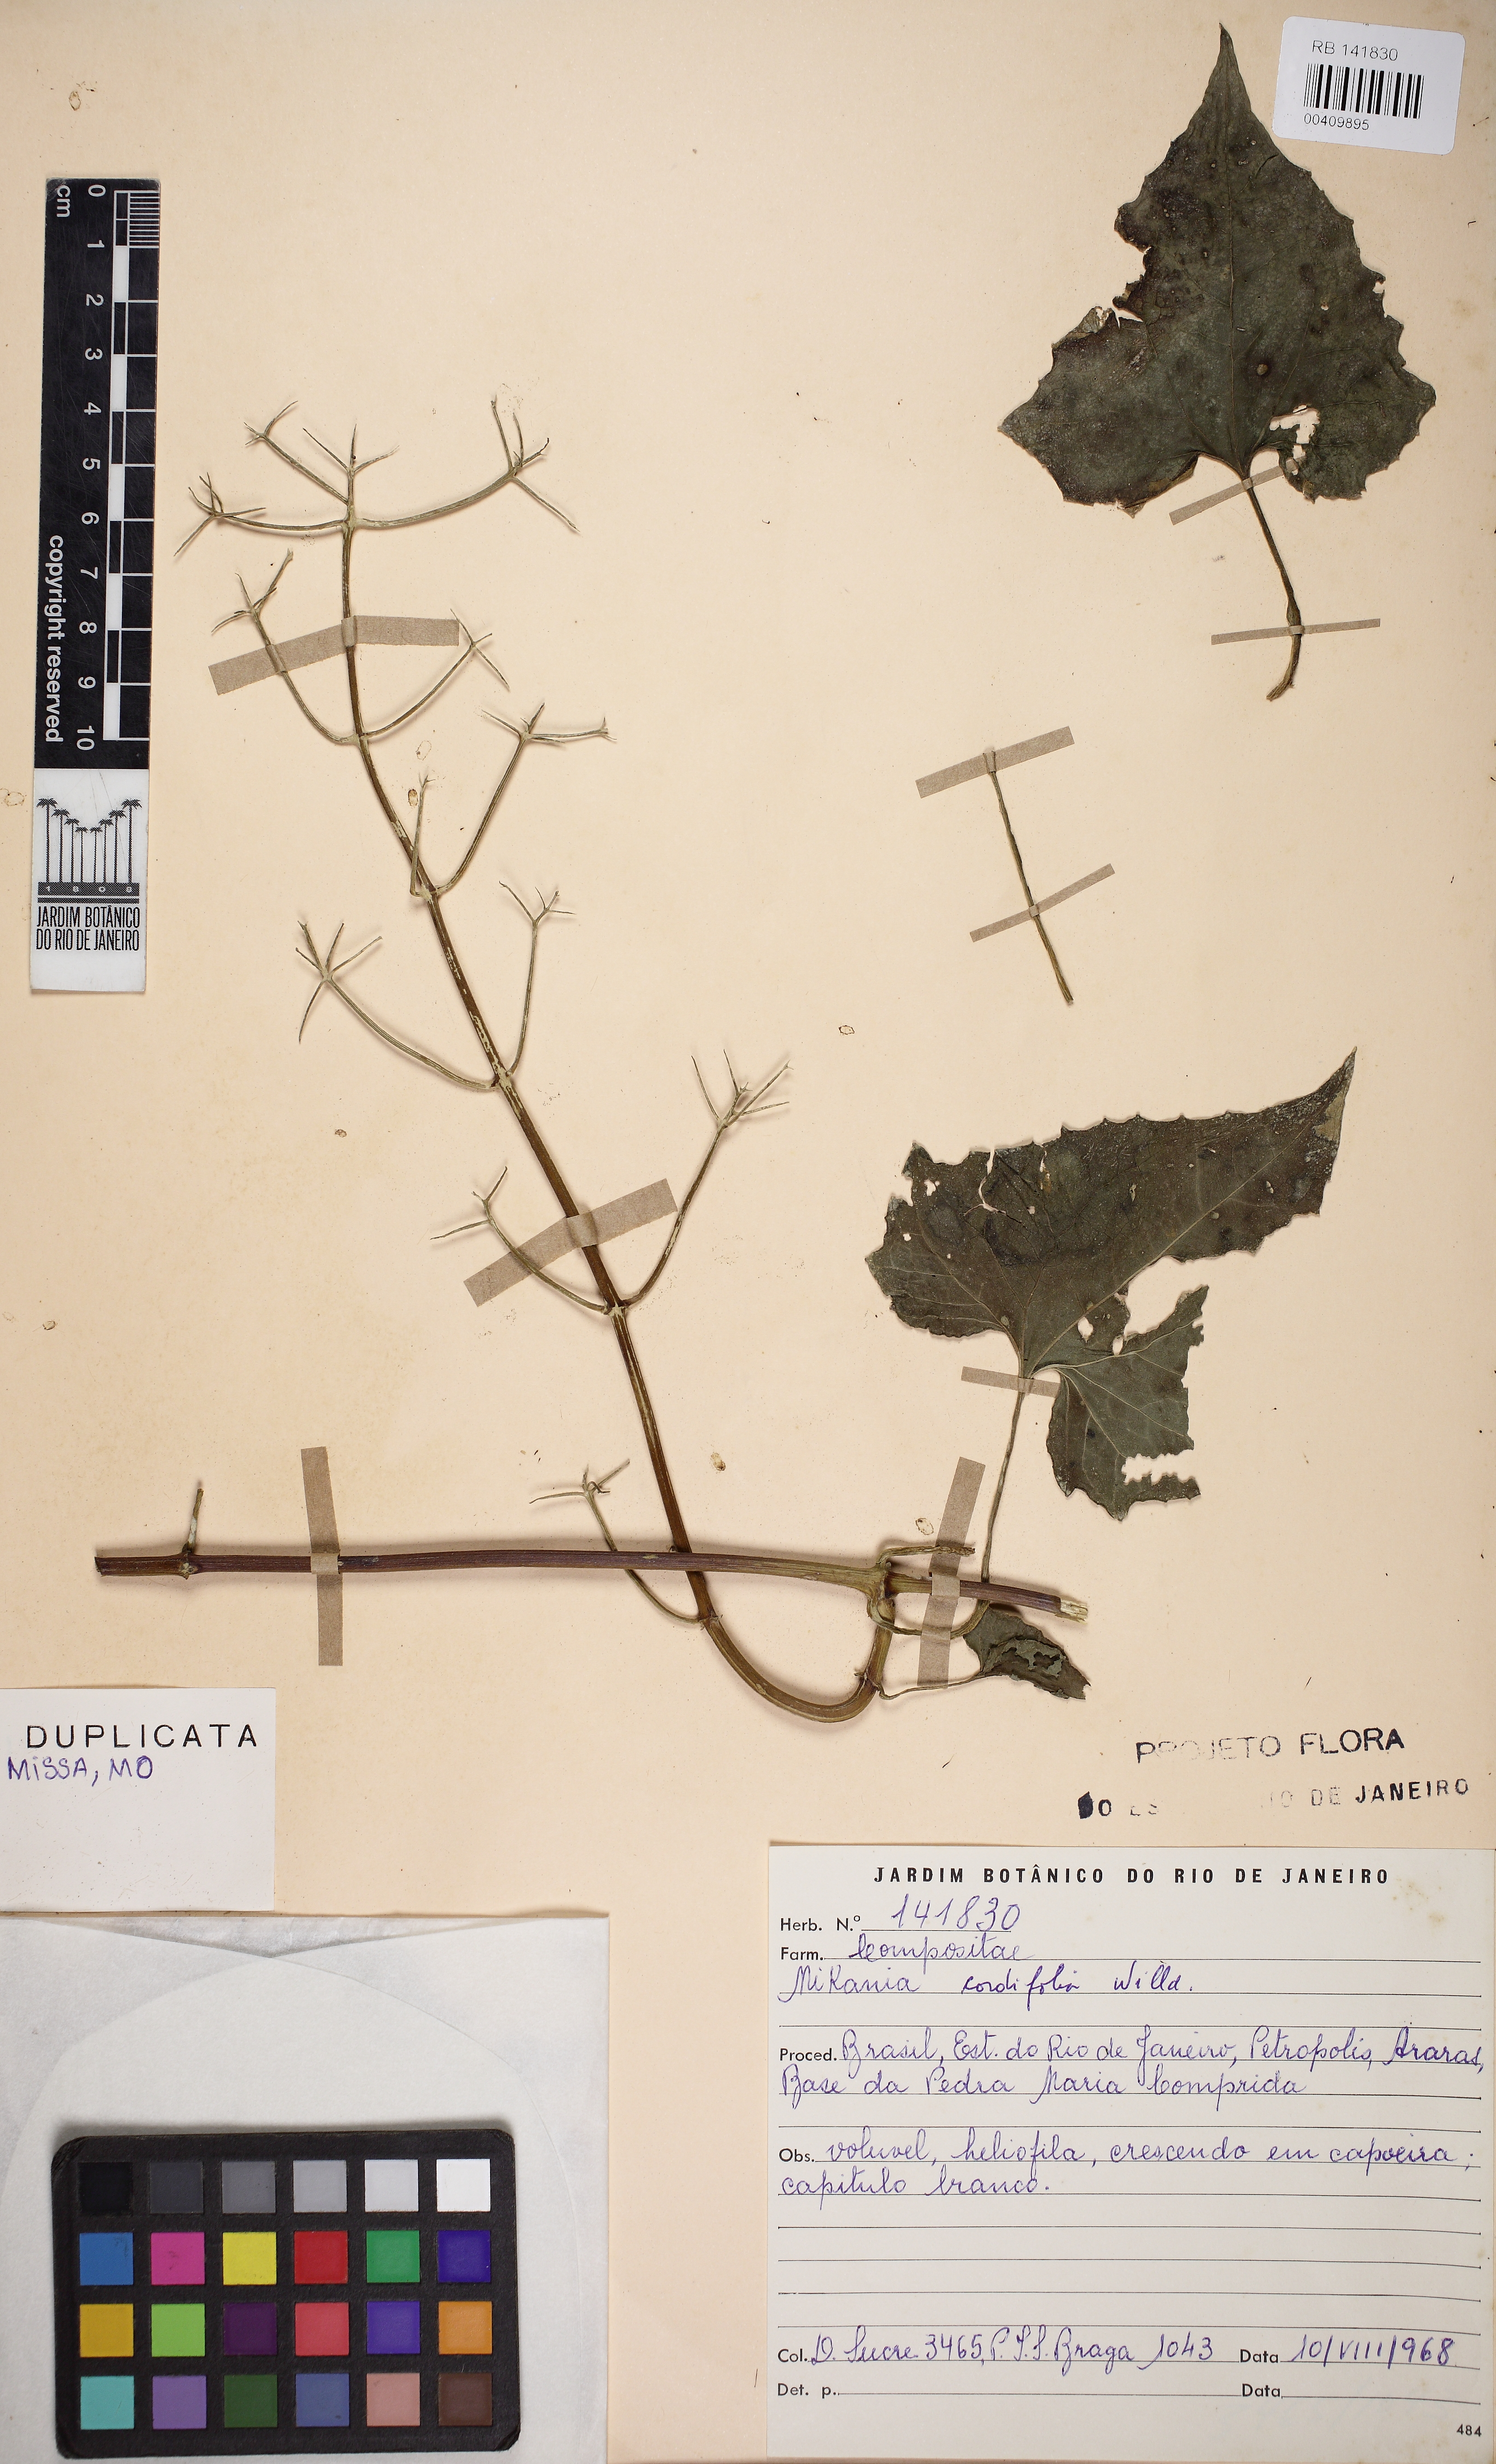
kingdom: Plantae
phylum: Tracheophyta
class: Magnoliopsida
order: Asterales
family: Asteraceae
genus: Mikania
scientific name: Mikania cordifolia
